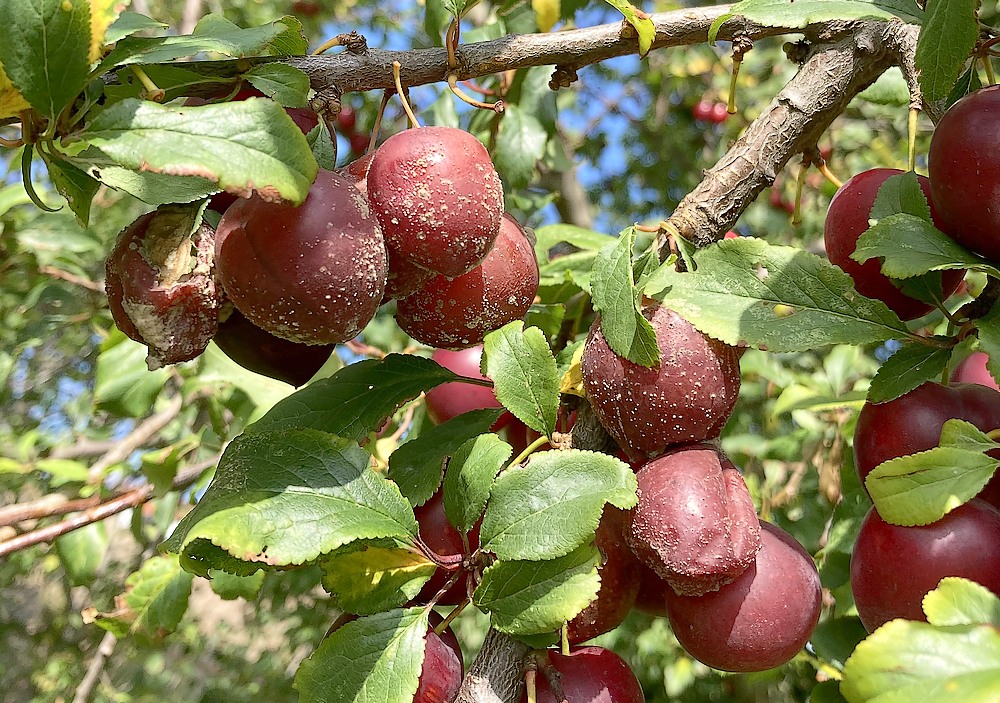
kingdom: Fungi
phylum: Ascomycota
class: Leotiomycetes
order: Helotiales
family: Sclerotiniaceae
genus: Monilinia
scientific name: Monilinia laxa
